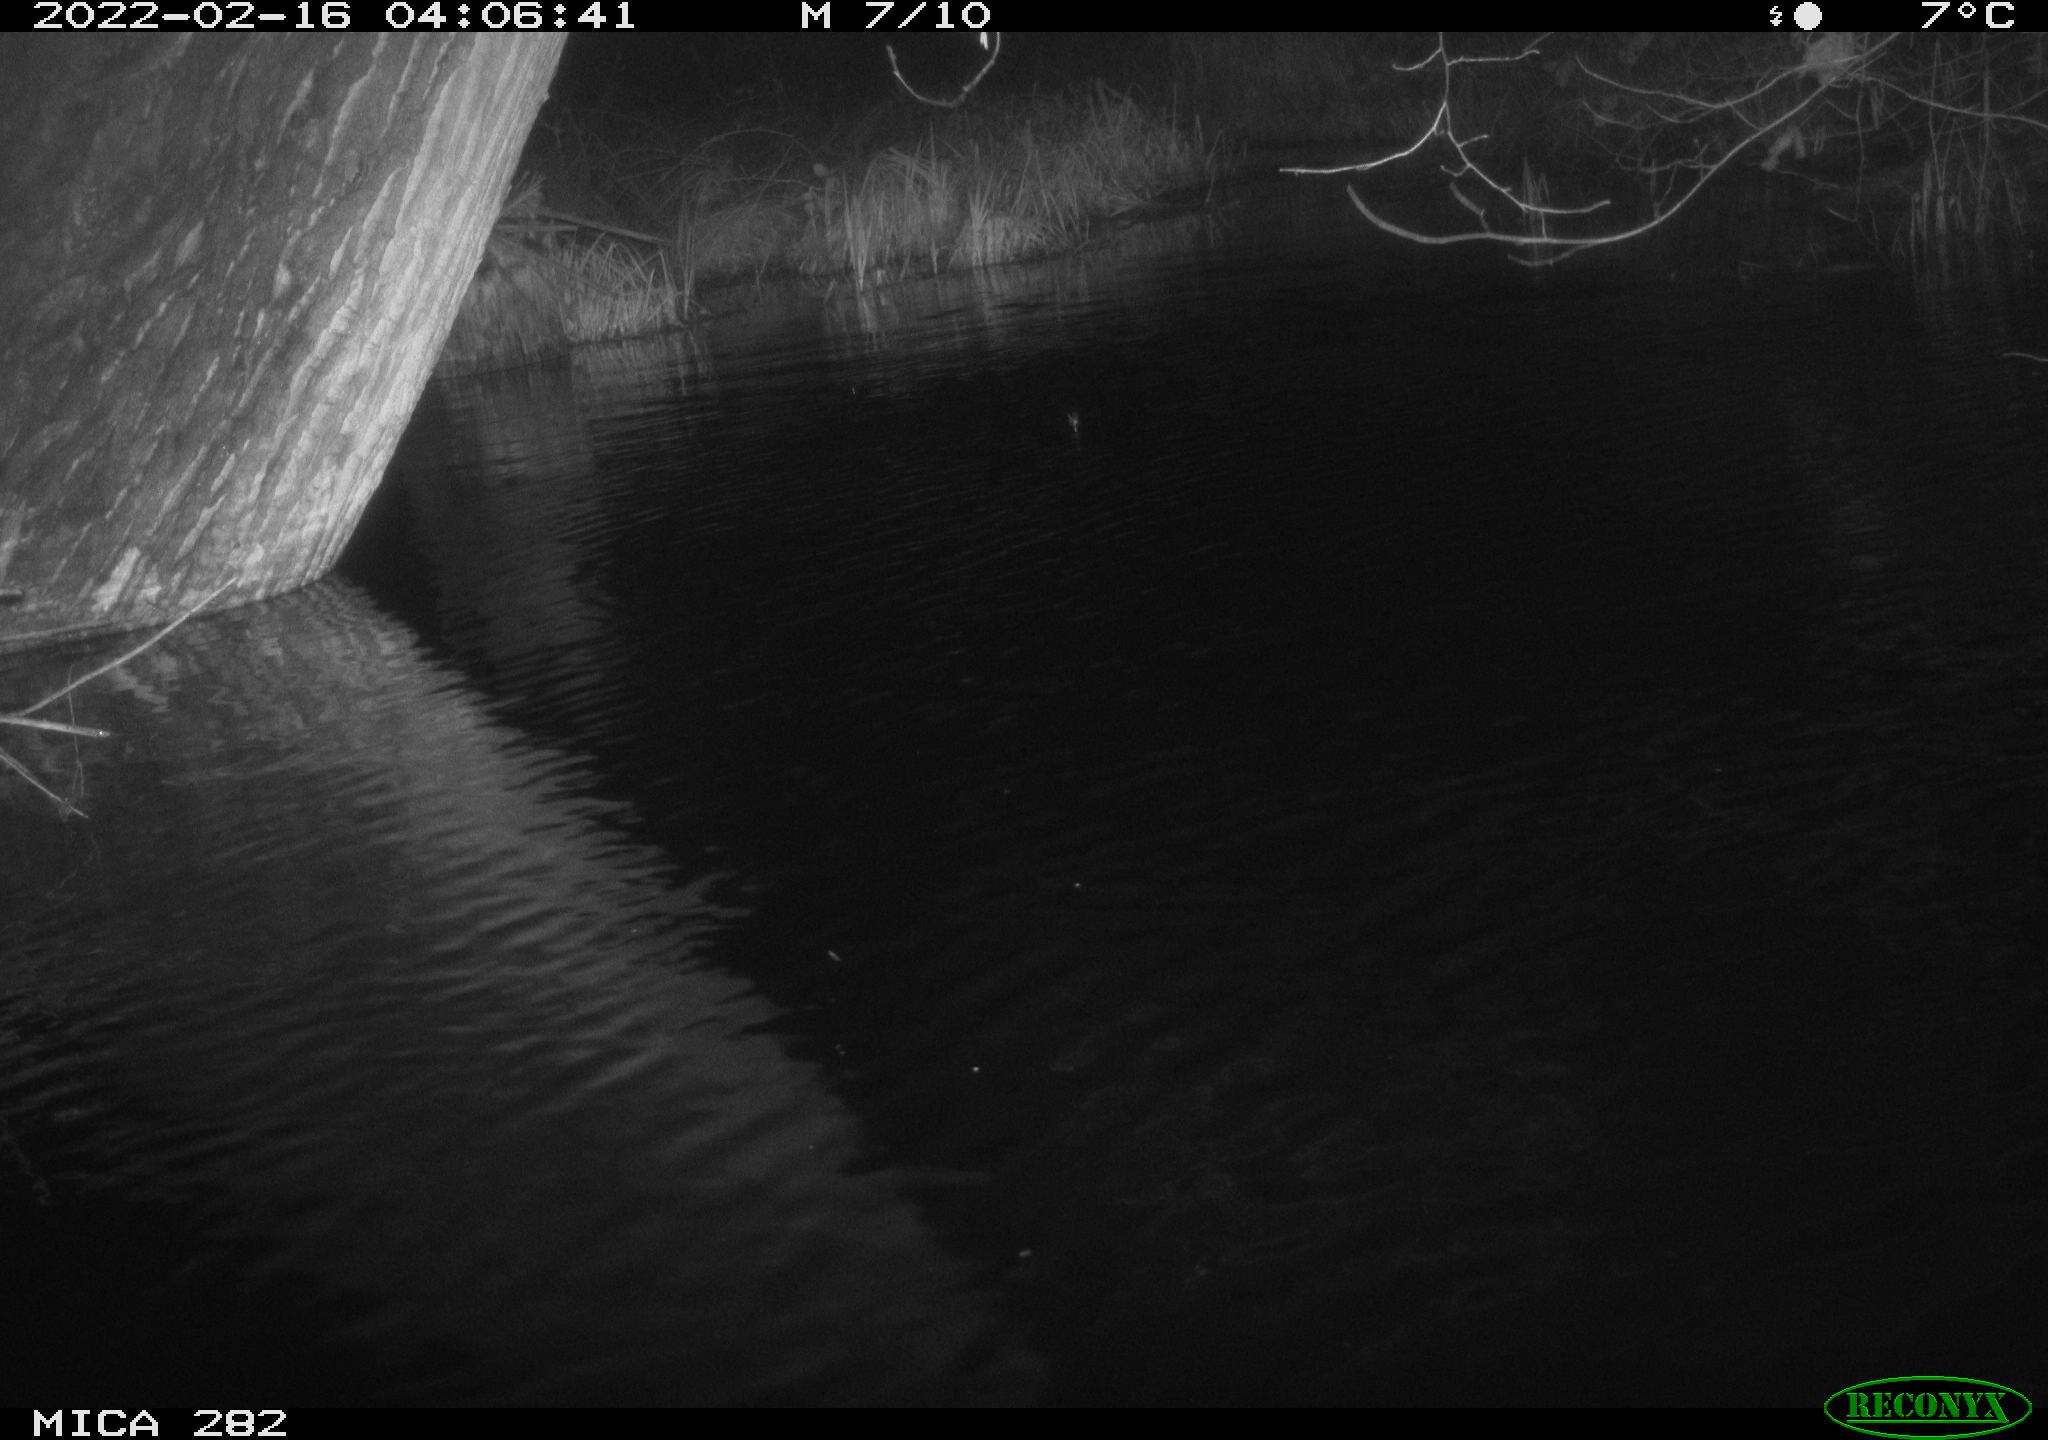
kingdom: Animalia
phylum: Chordata
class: Aves
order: Anseriformes
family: Anatidae
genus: Anas
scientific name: Anas platyrhynchos
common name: Mallard
